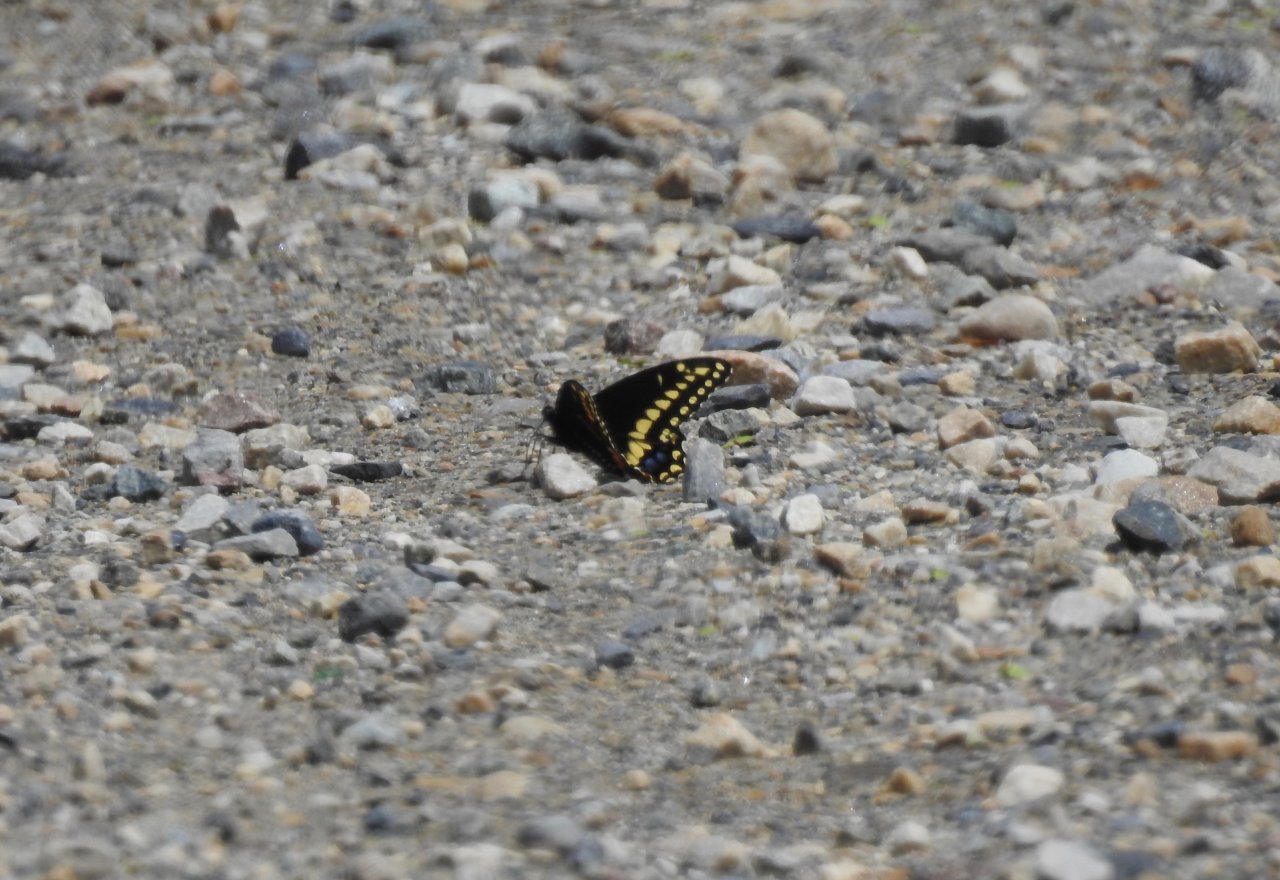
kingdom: Animalia
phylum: Arthropoda
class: Insecta
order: Lepidoptera
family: Papilionidae
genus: Papilio
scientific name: Papilio polyxenes
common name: Black Swallowtail
